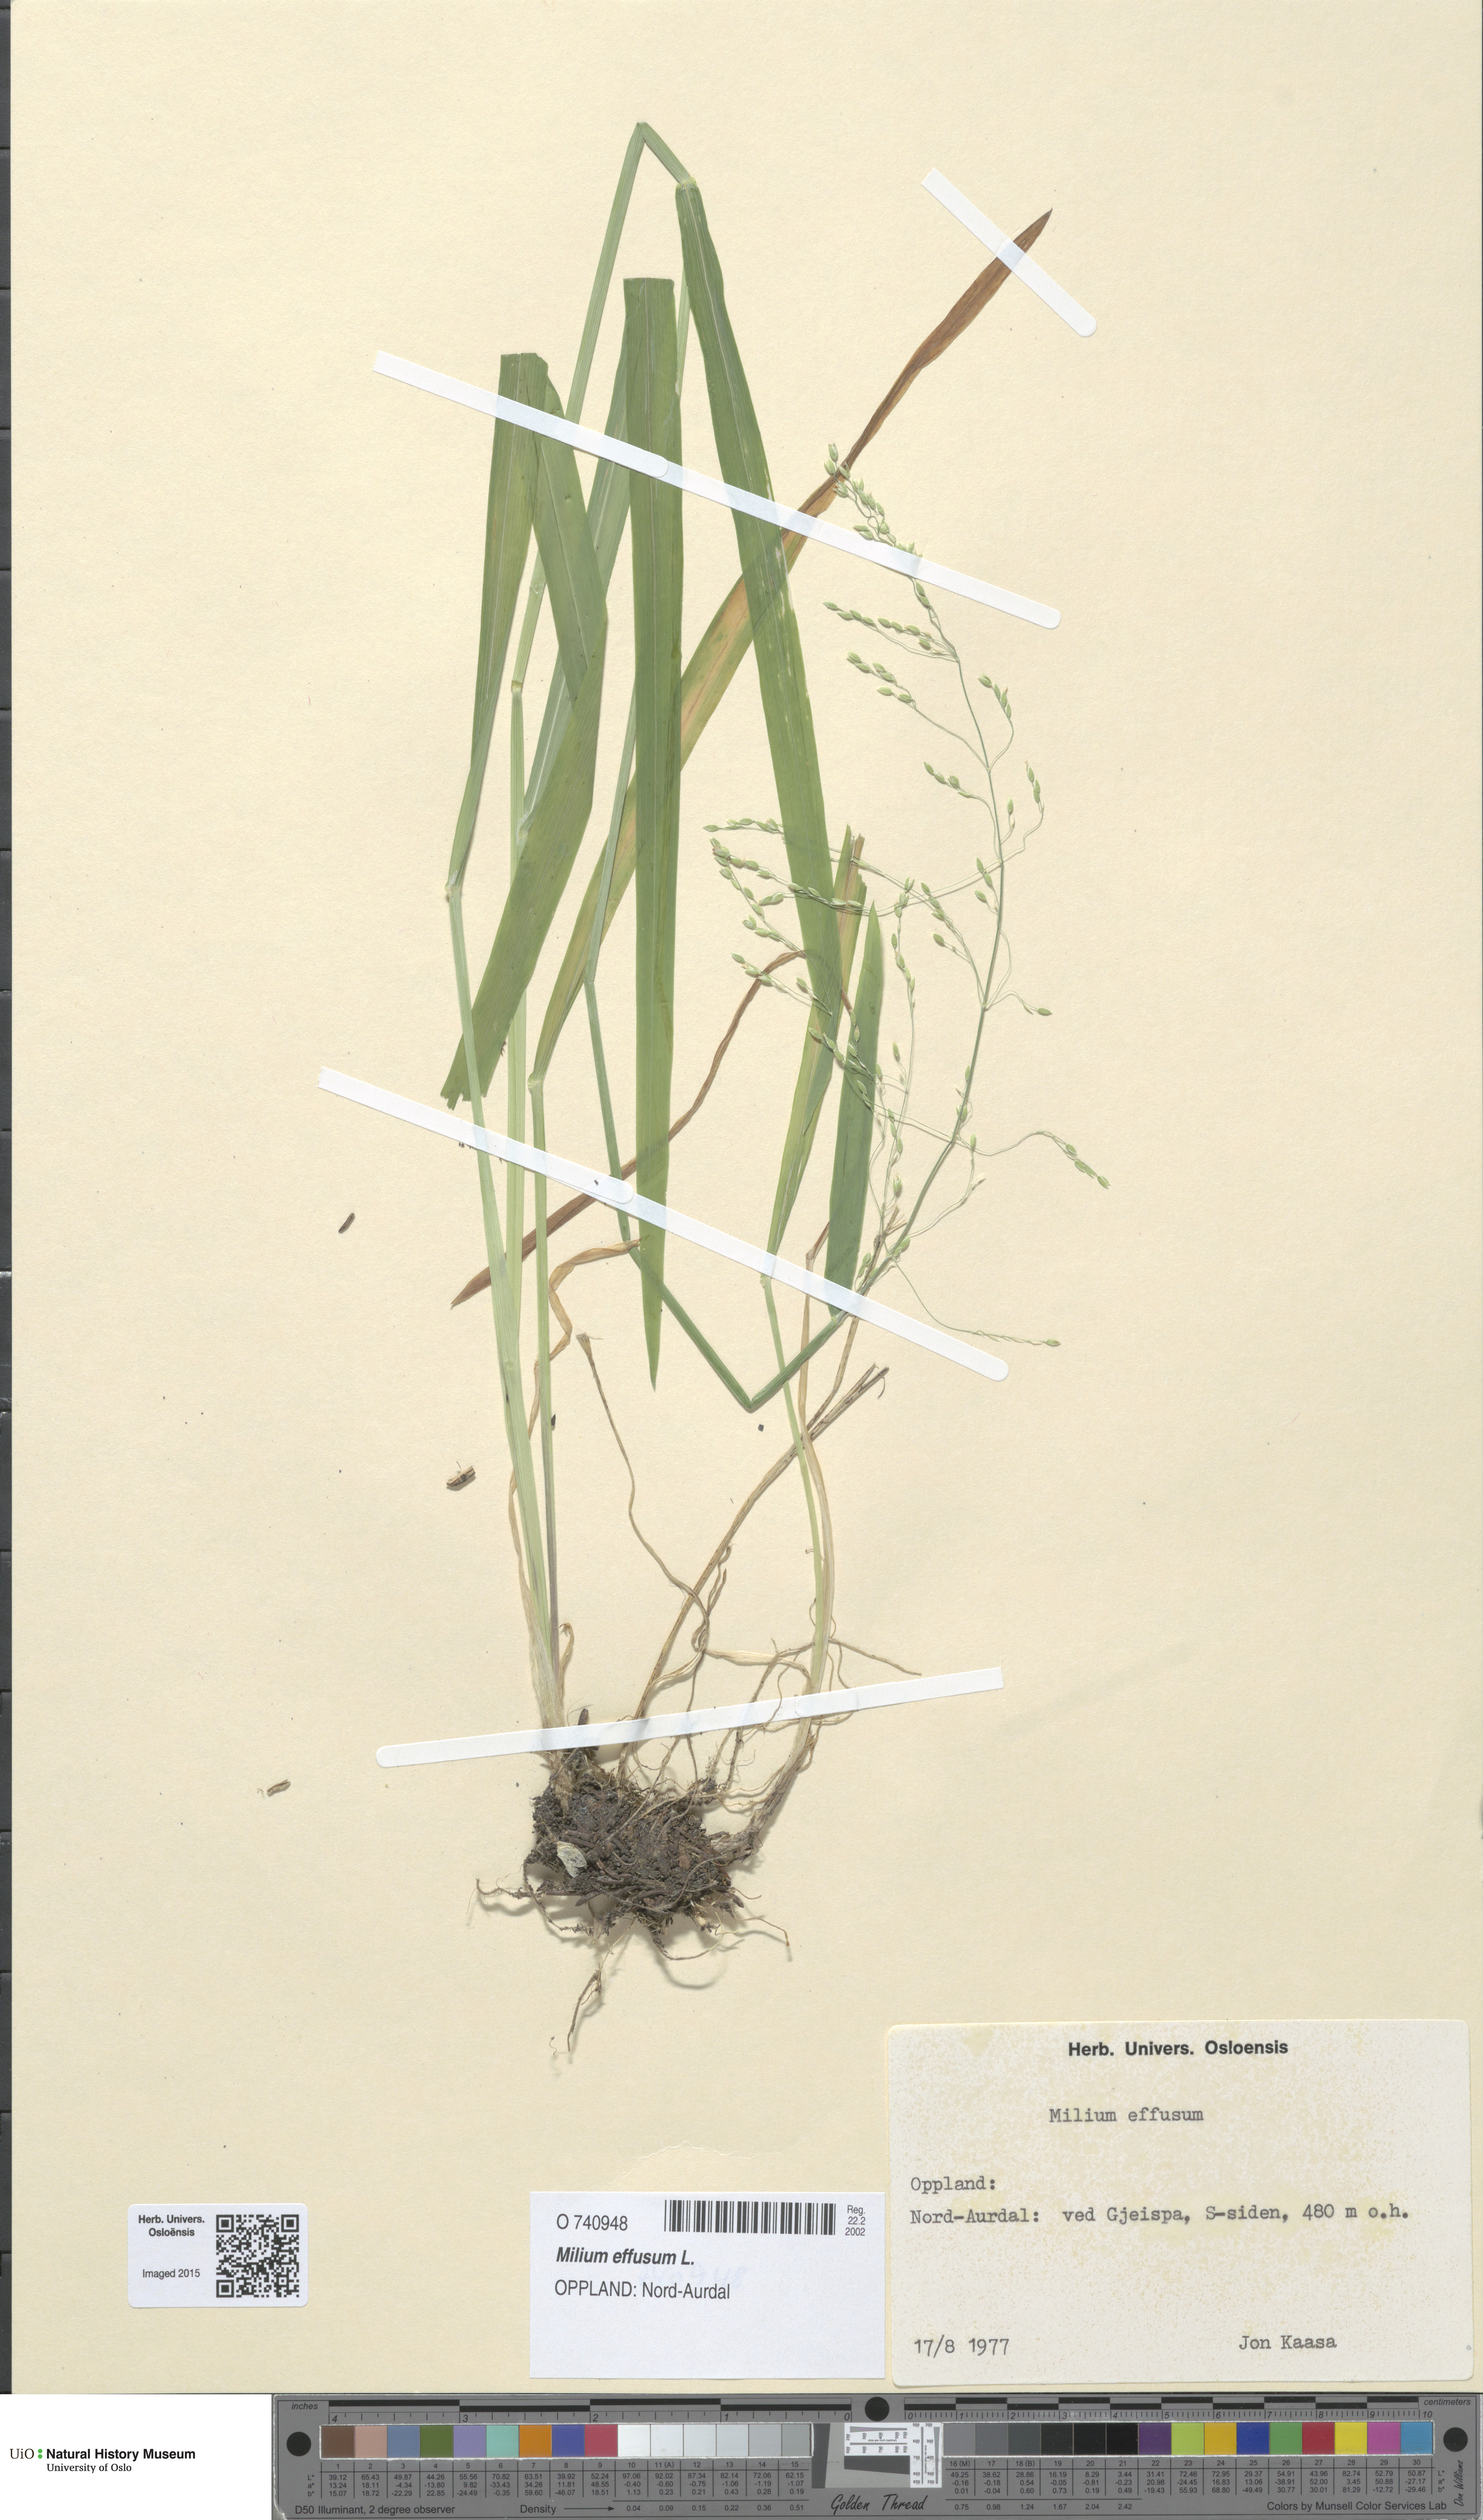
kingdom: Plantae
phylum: Tracheophyta
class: Liliopsida
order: Poales
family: Poaceae
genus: Milium
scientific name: Milium effusum
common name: Wood millet
